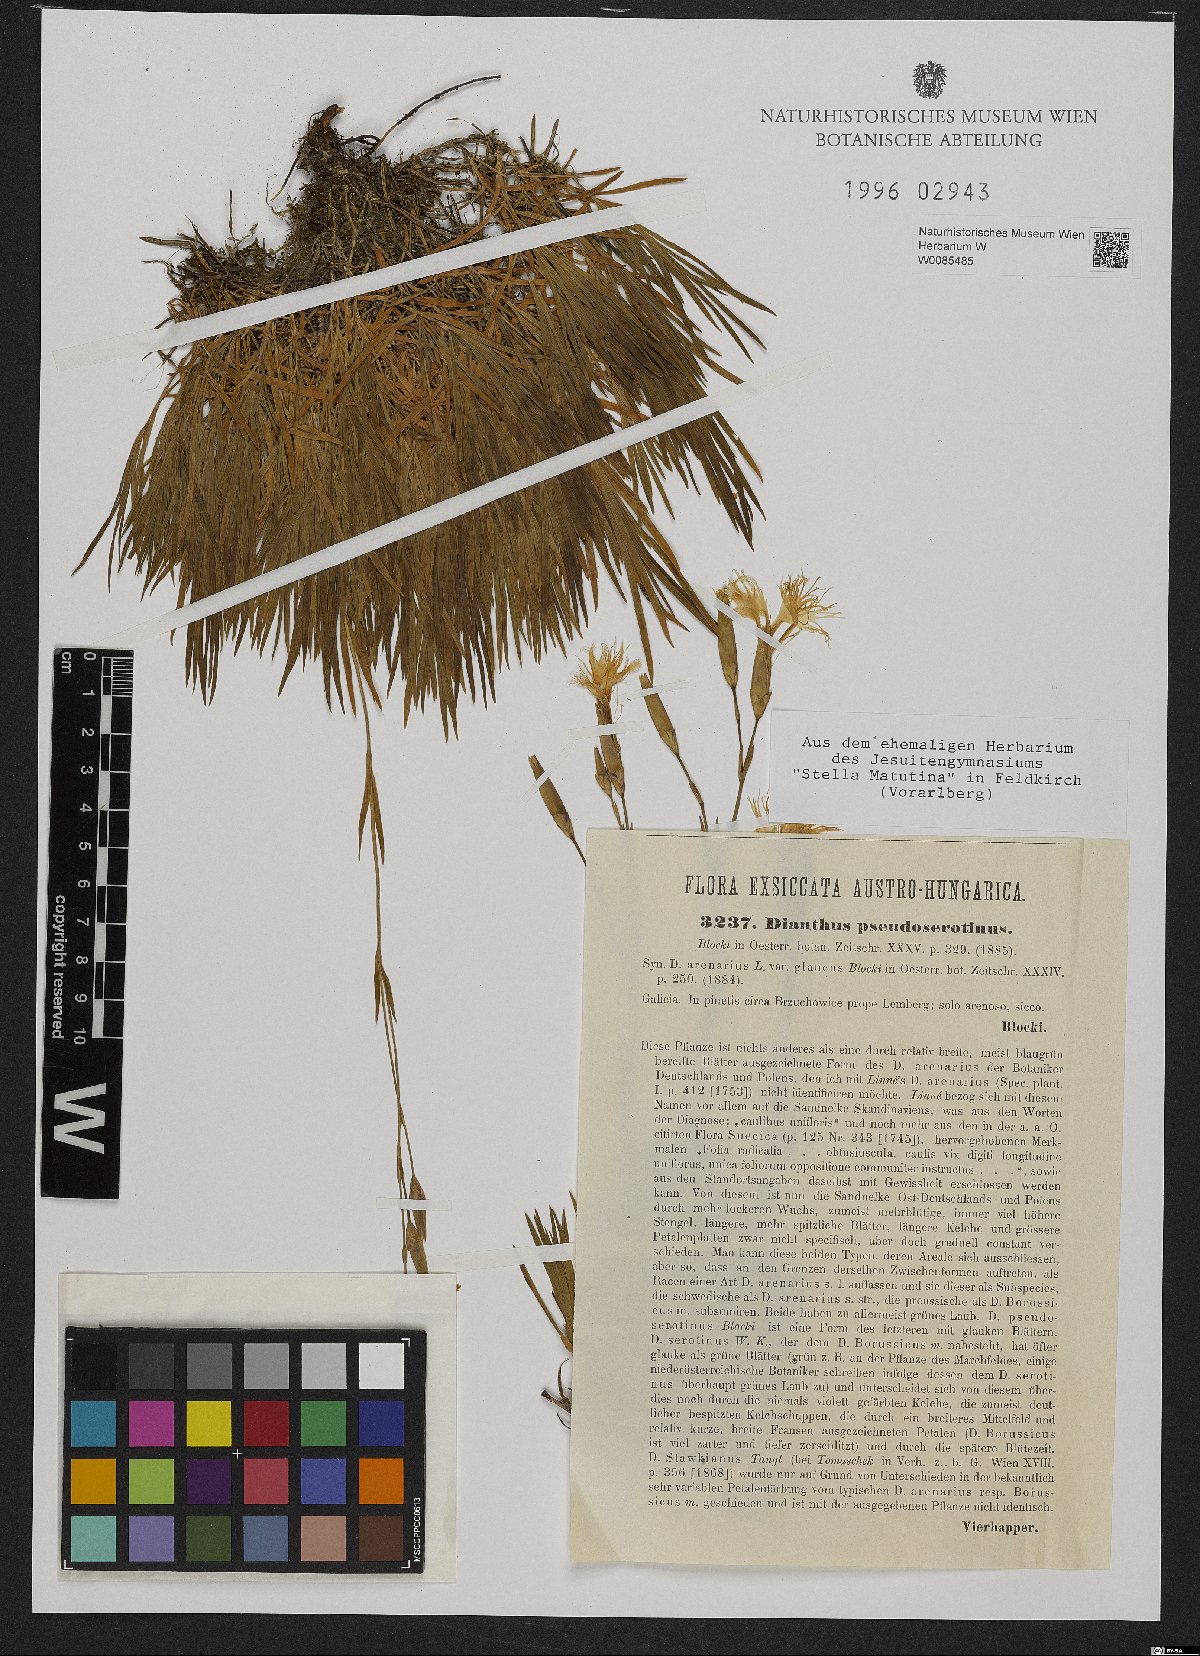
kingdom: Plantae
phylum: Tracheophyta
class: Magnoliopsida
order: Caryophyllales
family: Caryophyllaceae
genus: Dianthus
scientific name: Dianthus arenarius
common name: Stone pink
